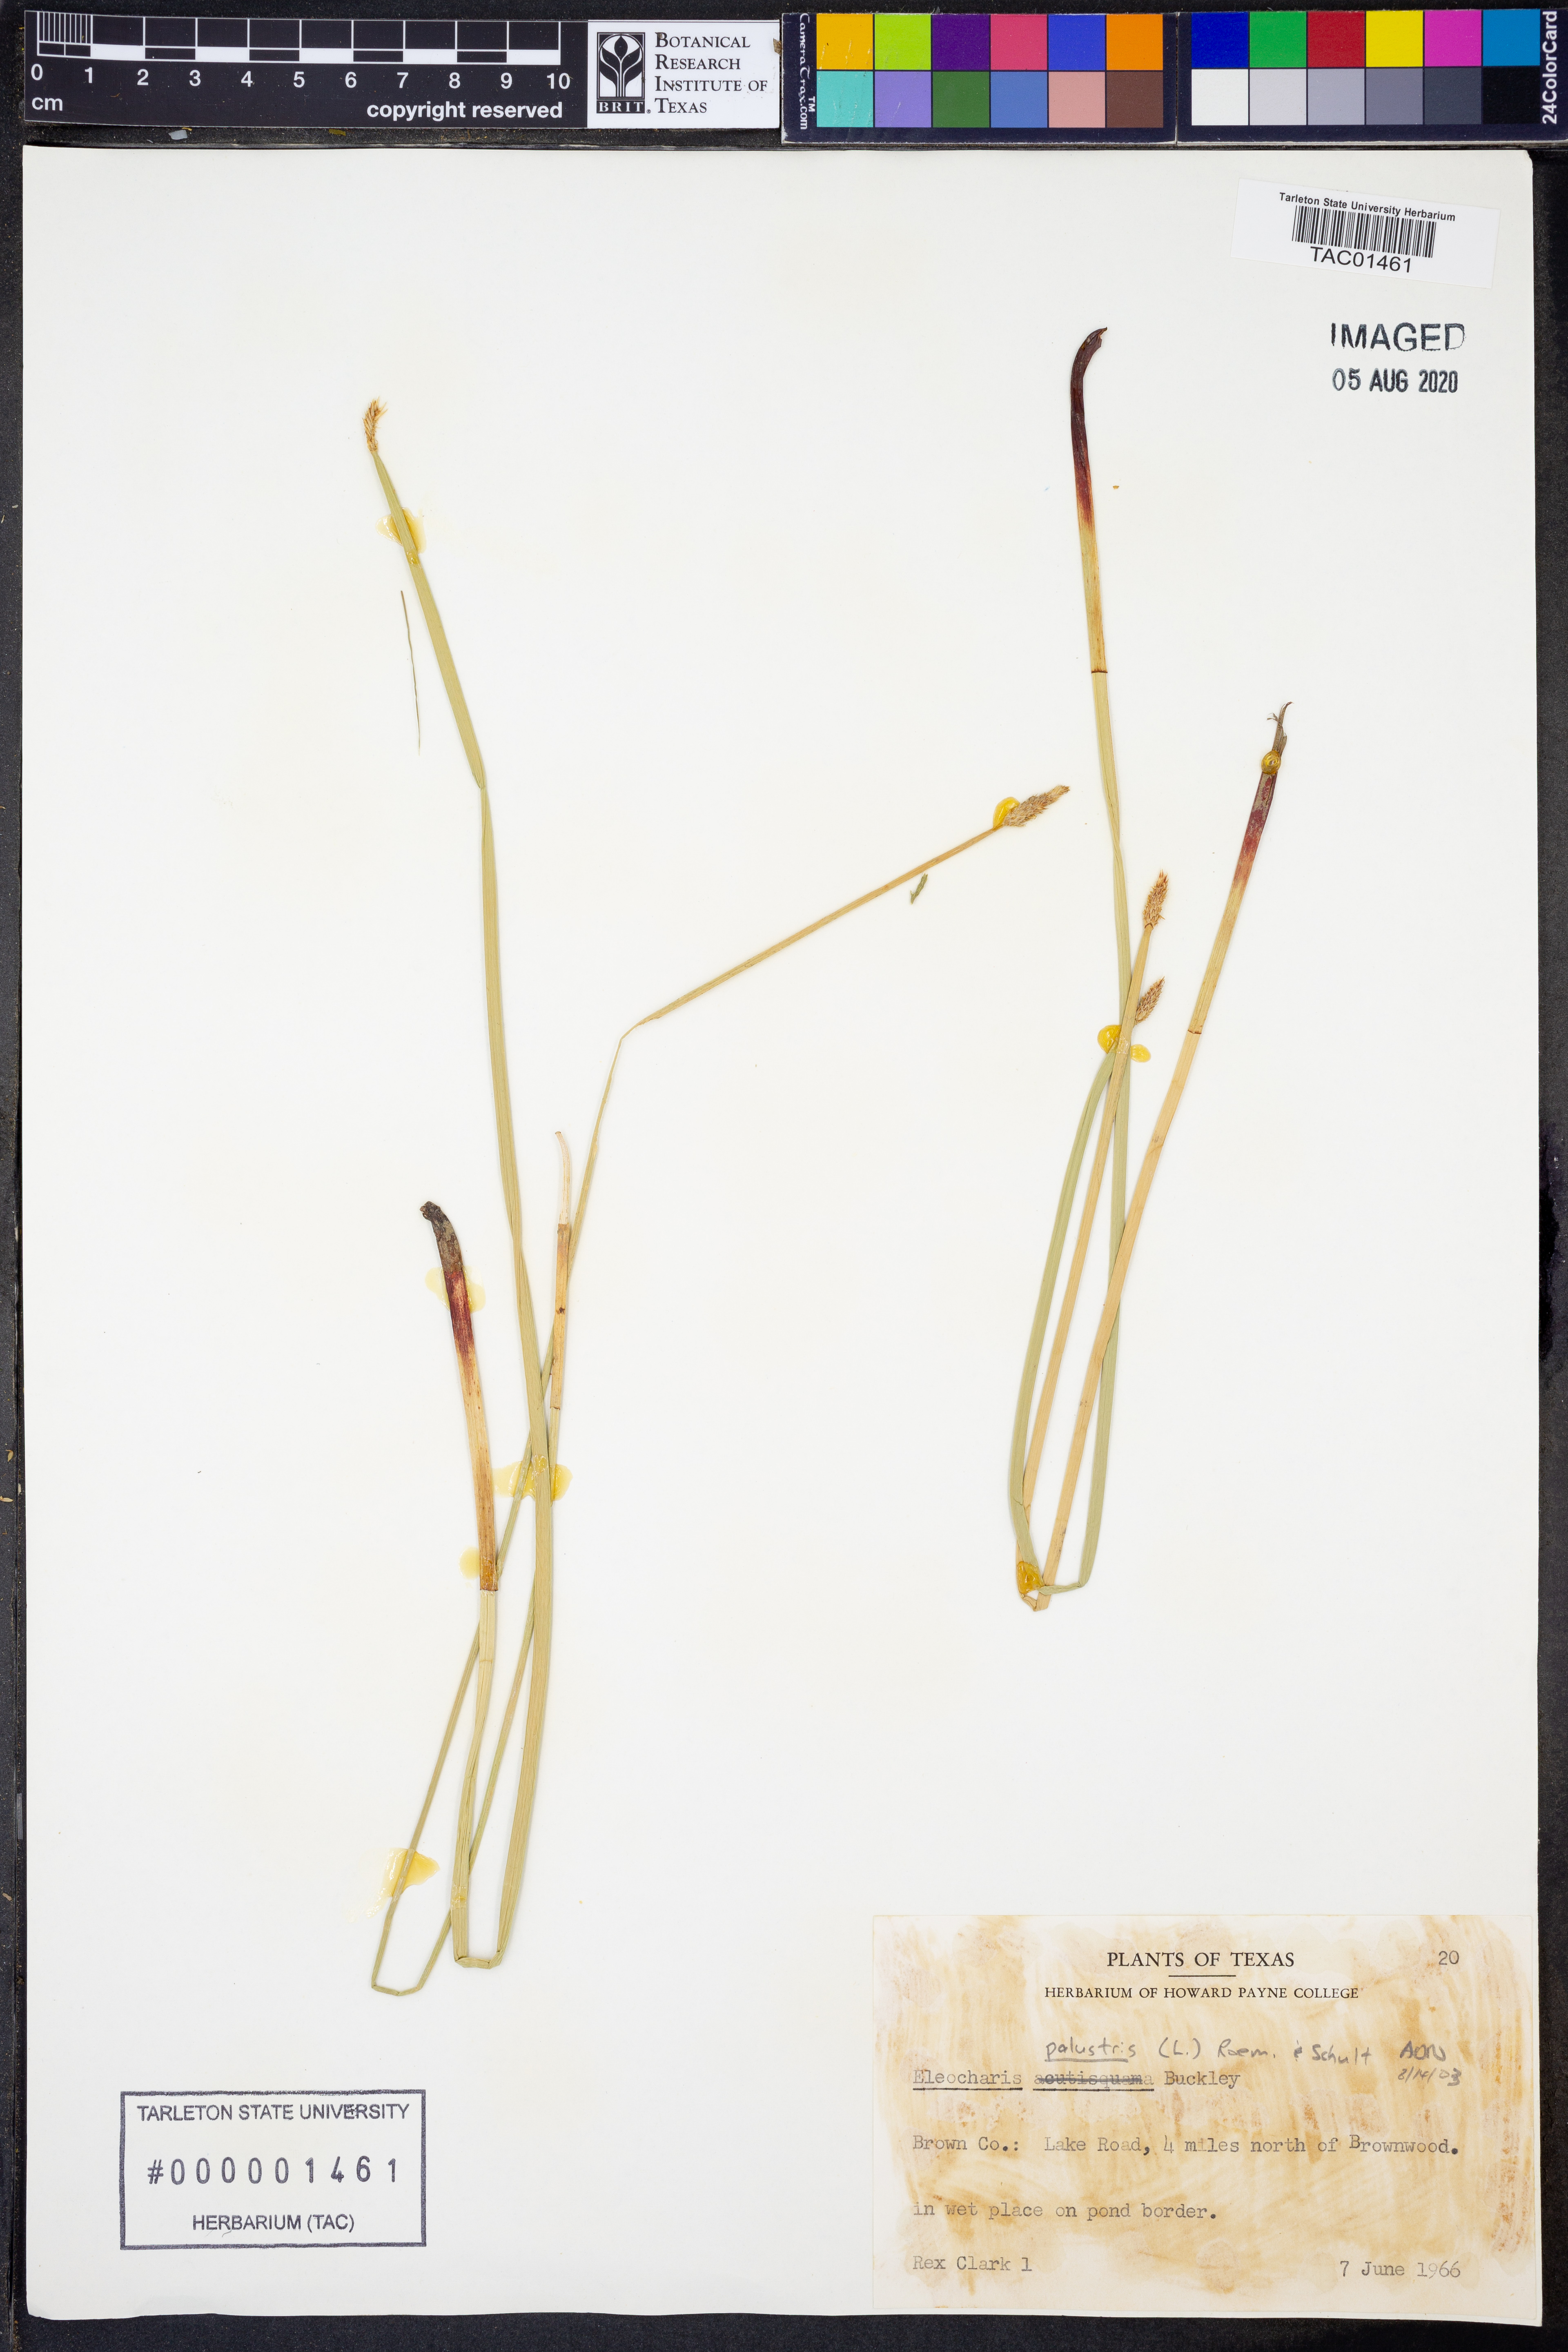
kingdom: Plantae
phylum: Tracheophyta
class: Liliopsida
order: Poales
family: Cyperaceae
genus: Eleocharis
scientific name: Eleocharis palustris
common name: Common spike-rush
